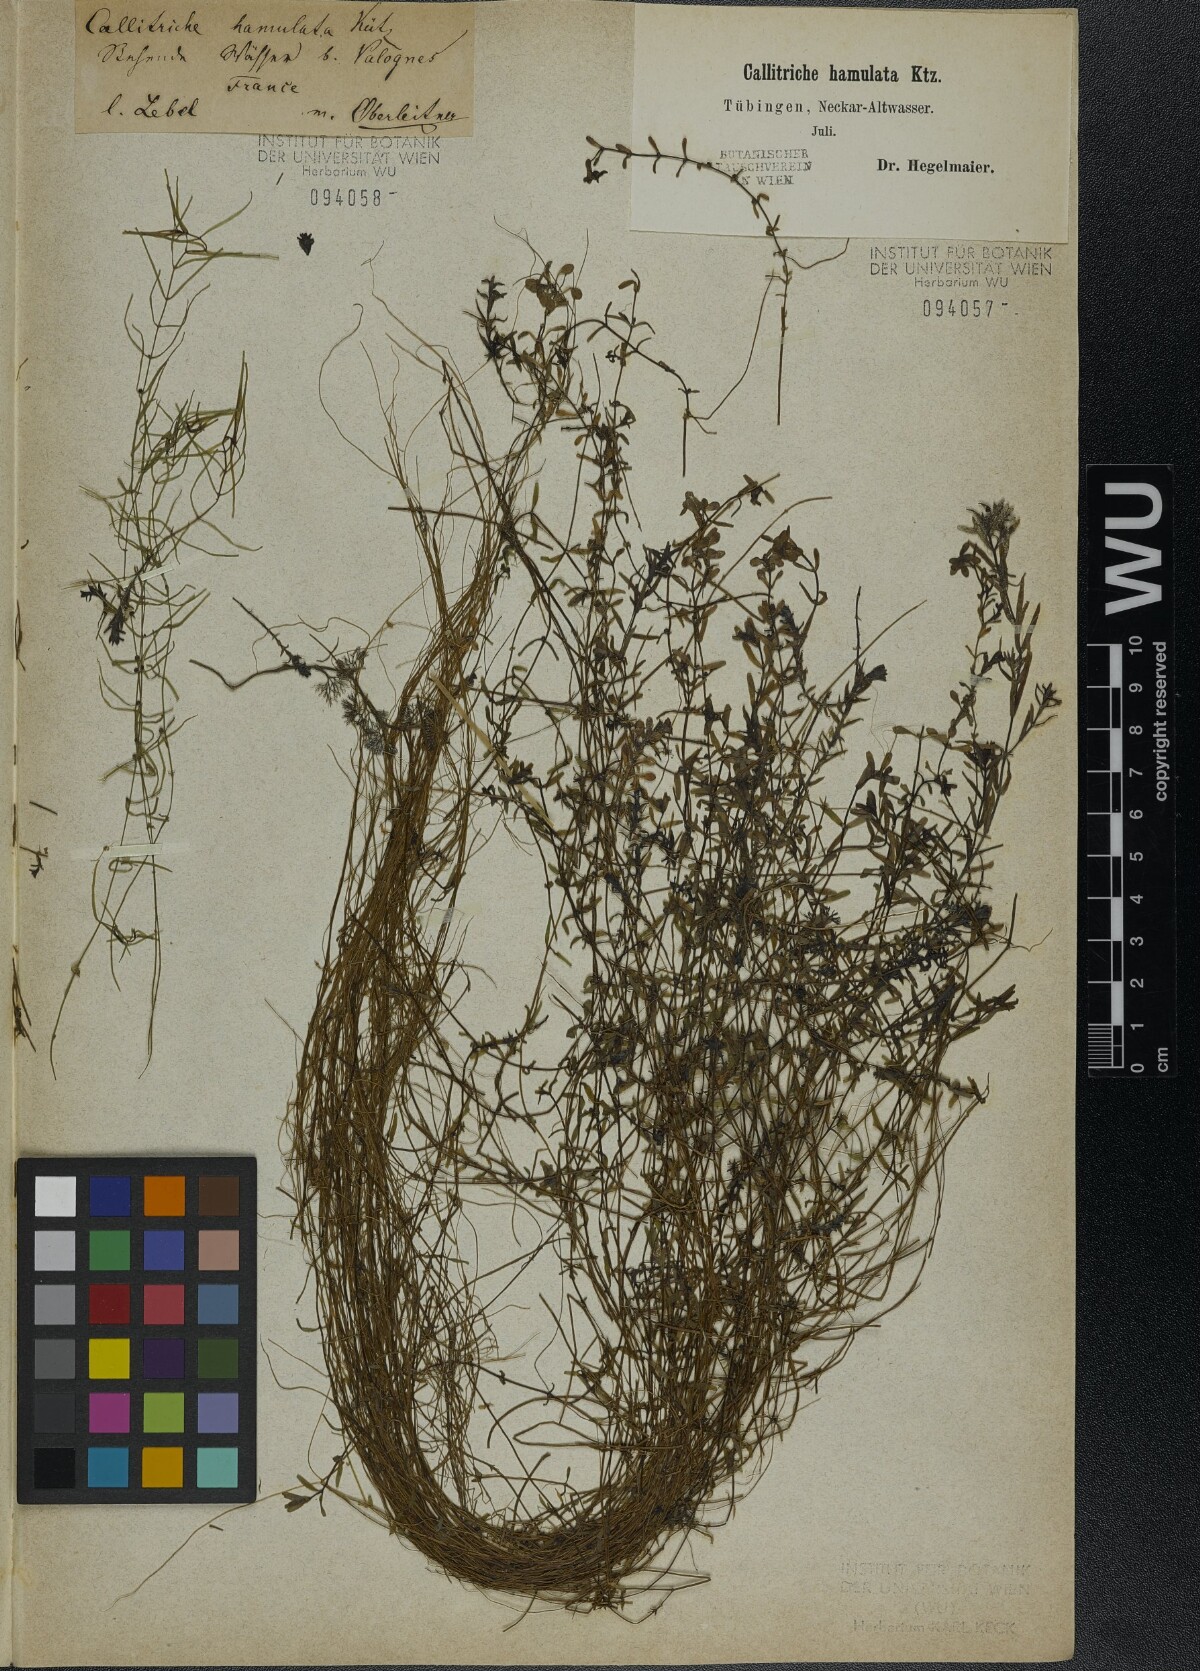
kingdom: Plantae
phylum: Tracheophyta
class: Magnoliopsida
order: Lamiales
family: Plantaginaceae
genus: Callitriche
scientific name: Callitriche hamulata
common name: Intermediate water-starwort
